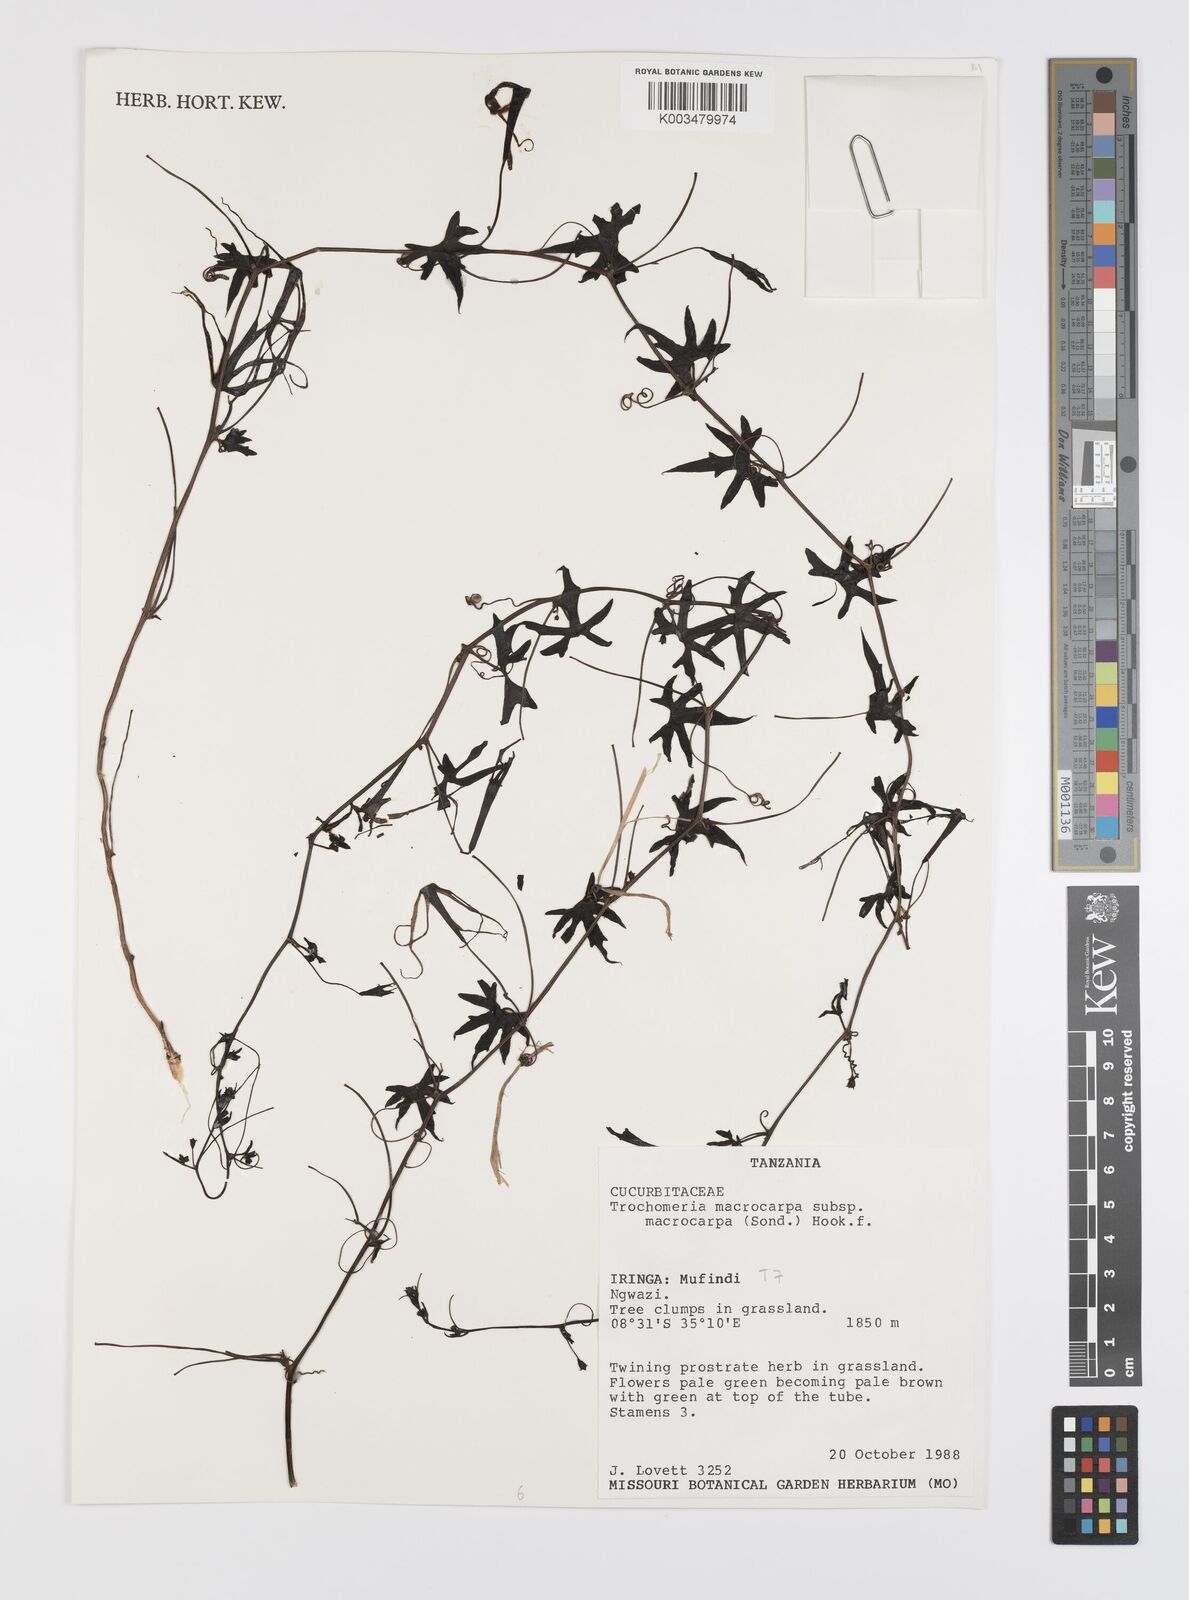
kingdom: Plantae
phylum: Tracheophyta
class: Magnoliopsida
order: Cucurbitales
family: Cucurbitaceae
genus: Trochomeria
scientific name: Trochomeria macrocarpa
